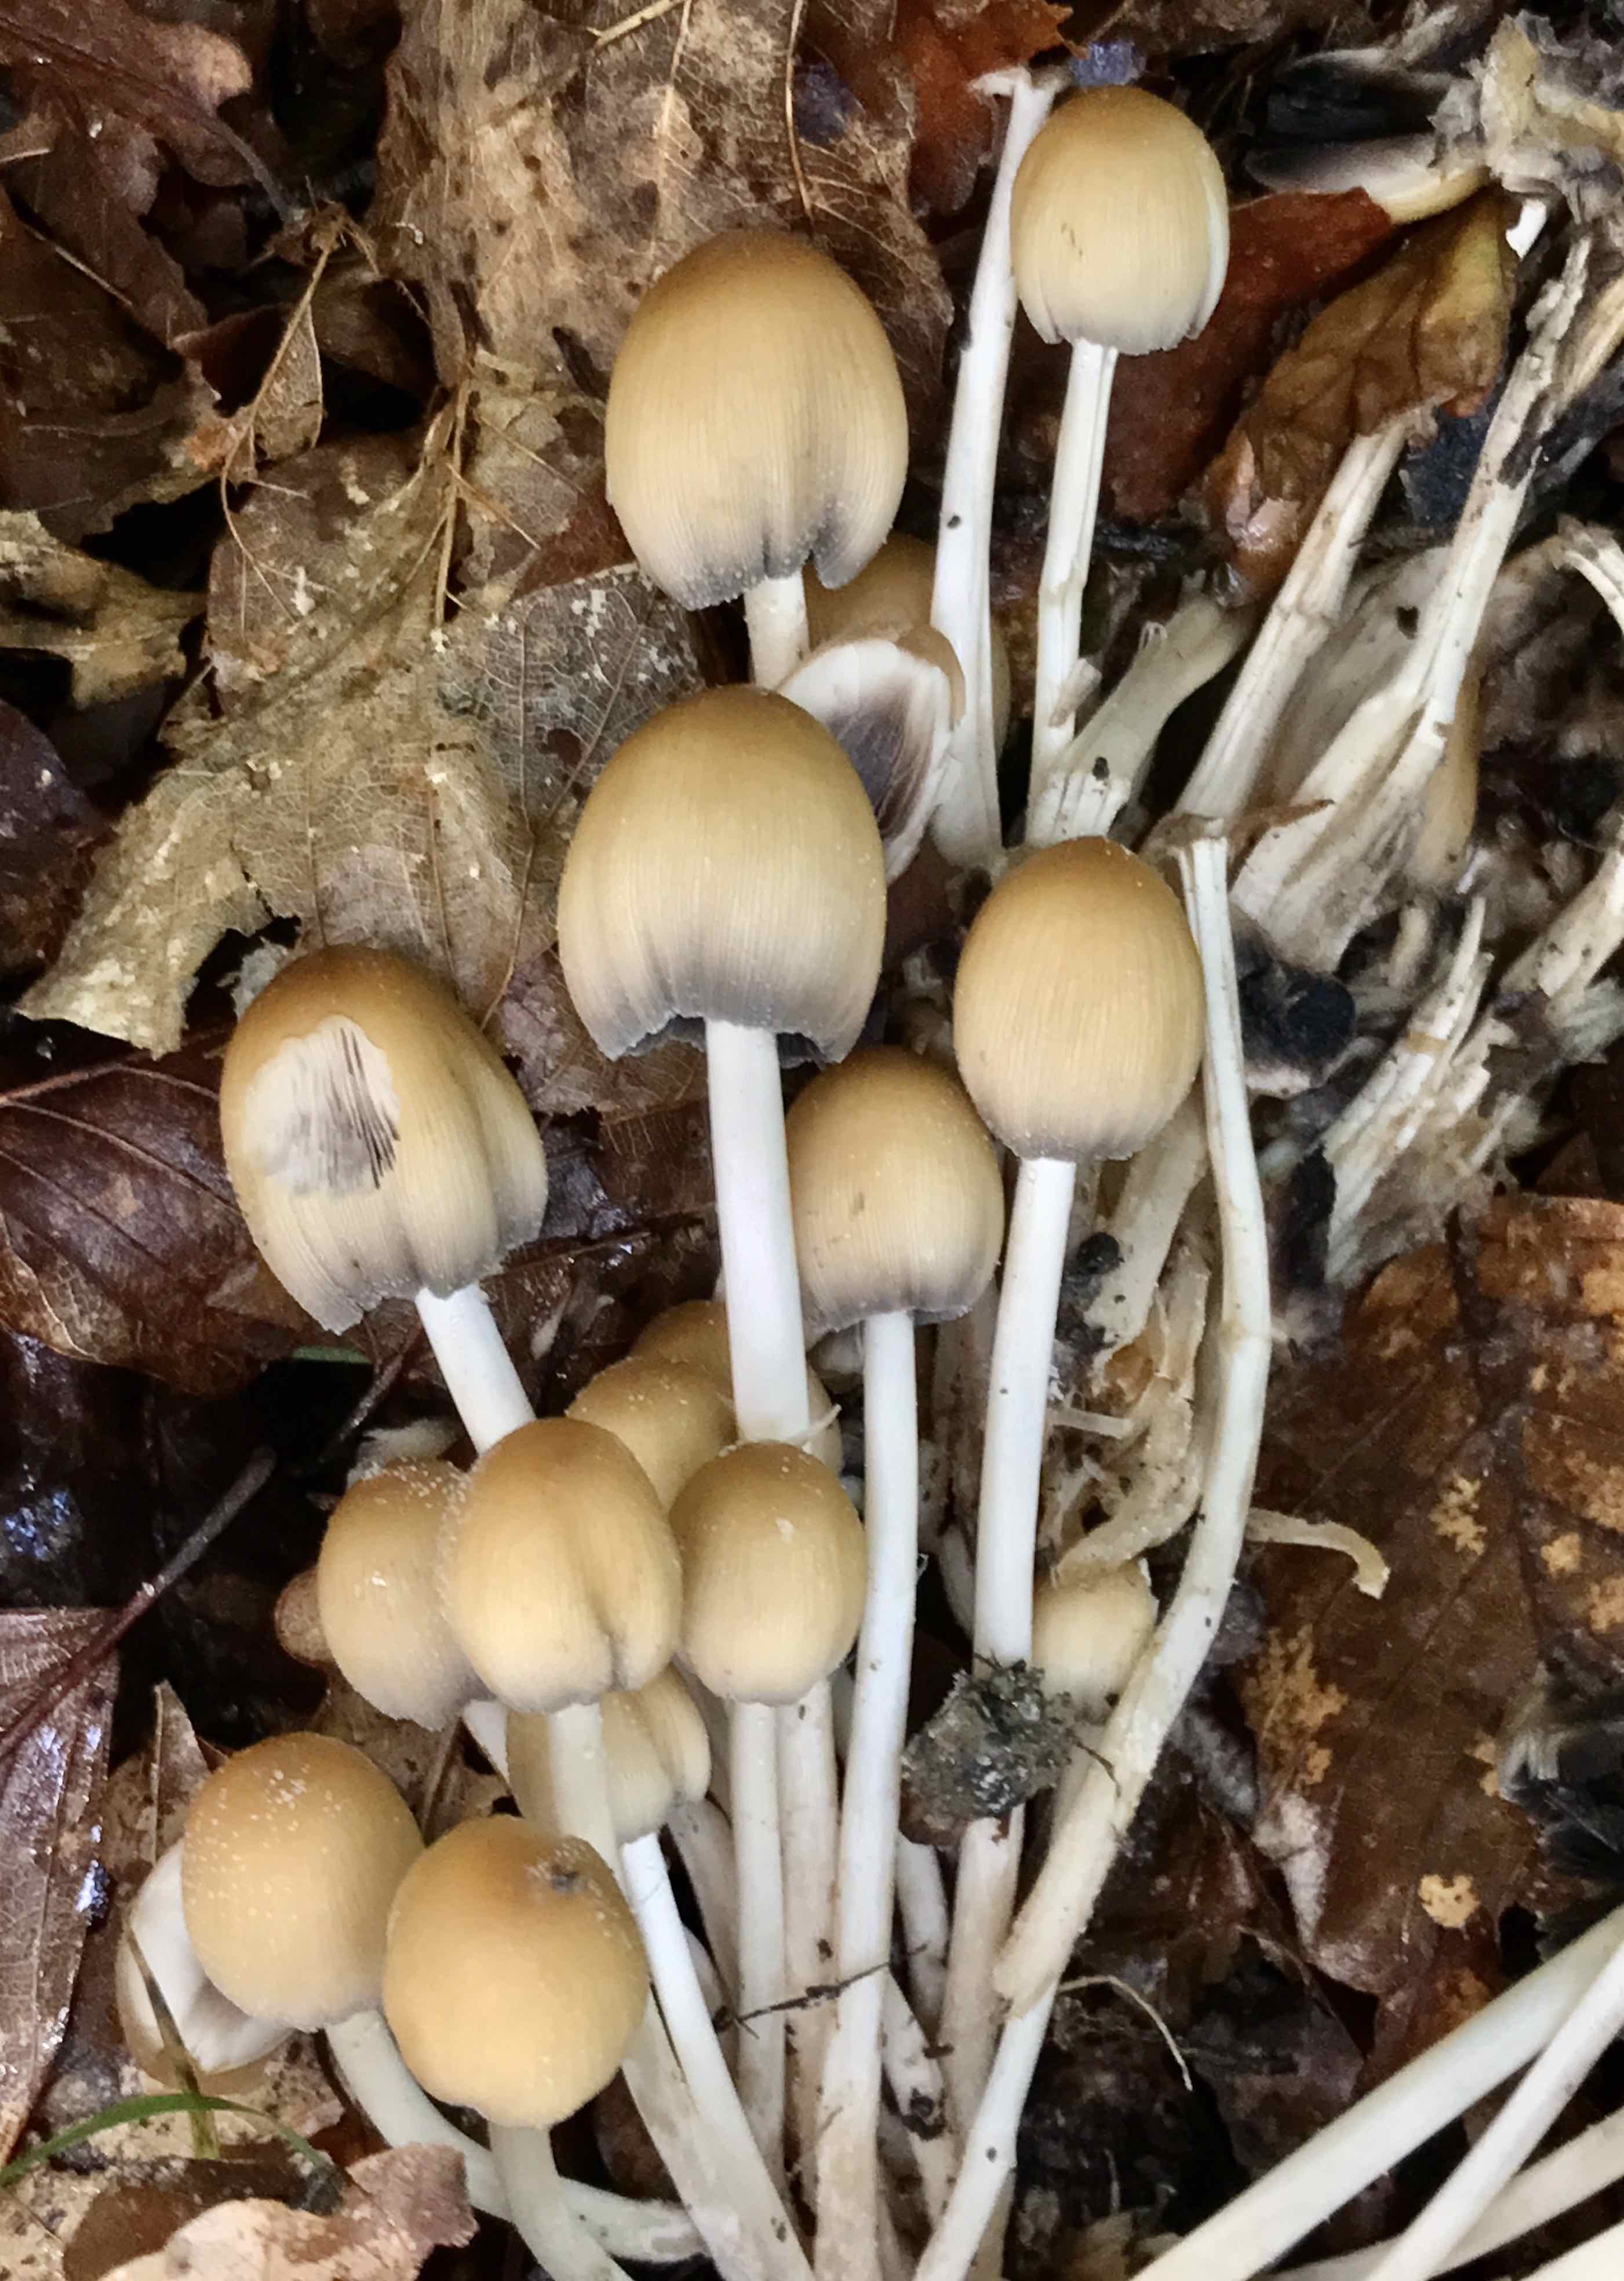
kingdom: Fungi
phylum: Basidiomycota
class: Agaricomycetes
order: Agaricales
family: Psathyrellaceae
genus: Coprinellus
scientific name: Coprinellus micaceus
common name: glimmer-blækhat
